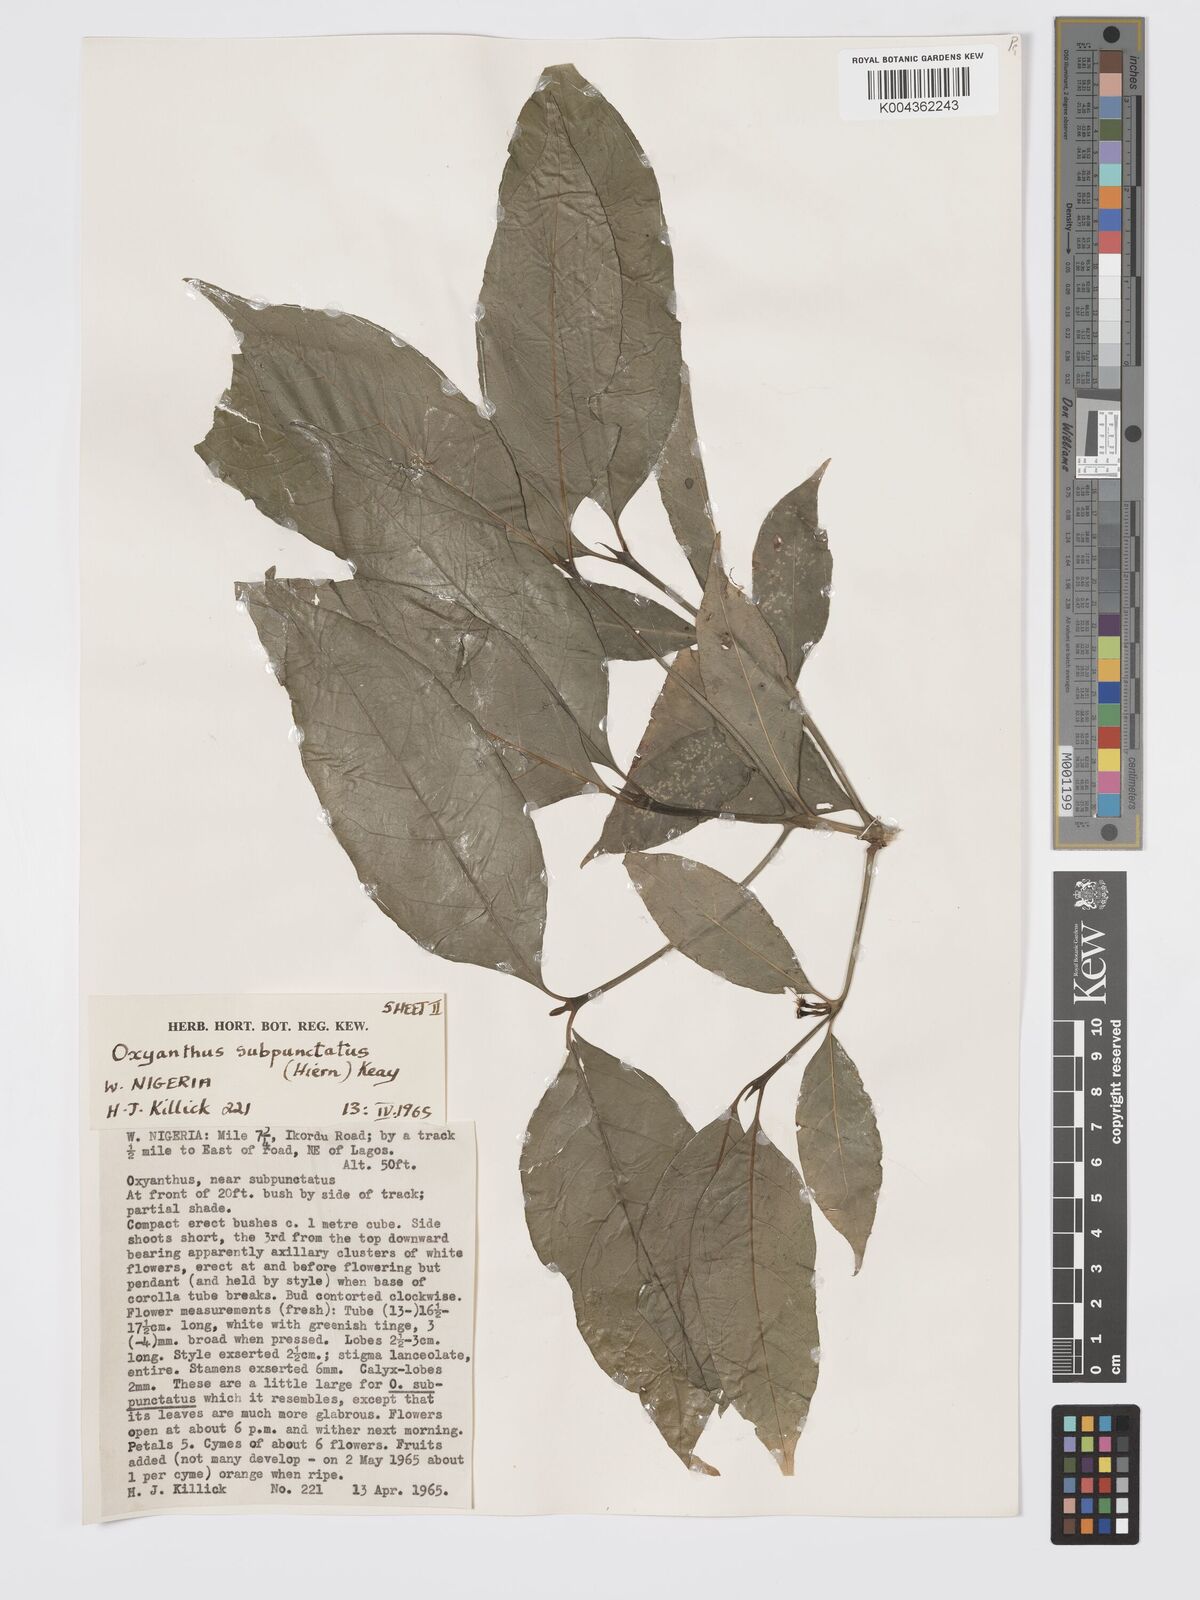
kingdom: Plantae
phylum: Tracheophyta
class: Magnoliopsida
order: Gentianales
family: Rubiaceae
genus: Oxyanthus
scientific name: Oxyanthus subpunctatus
